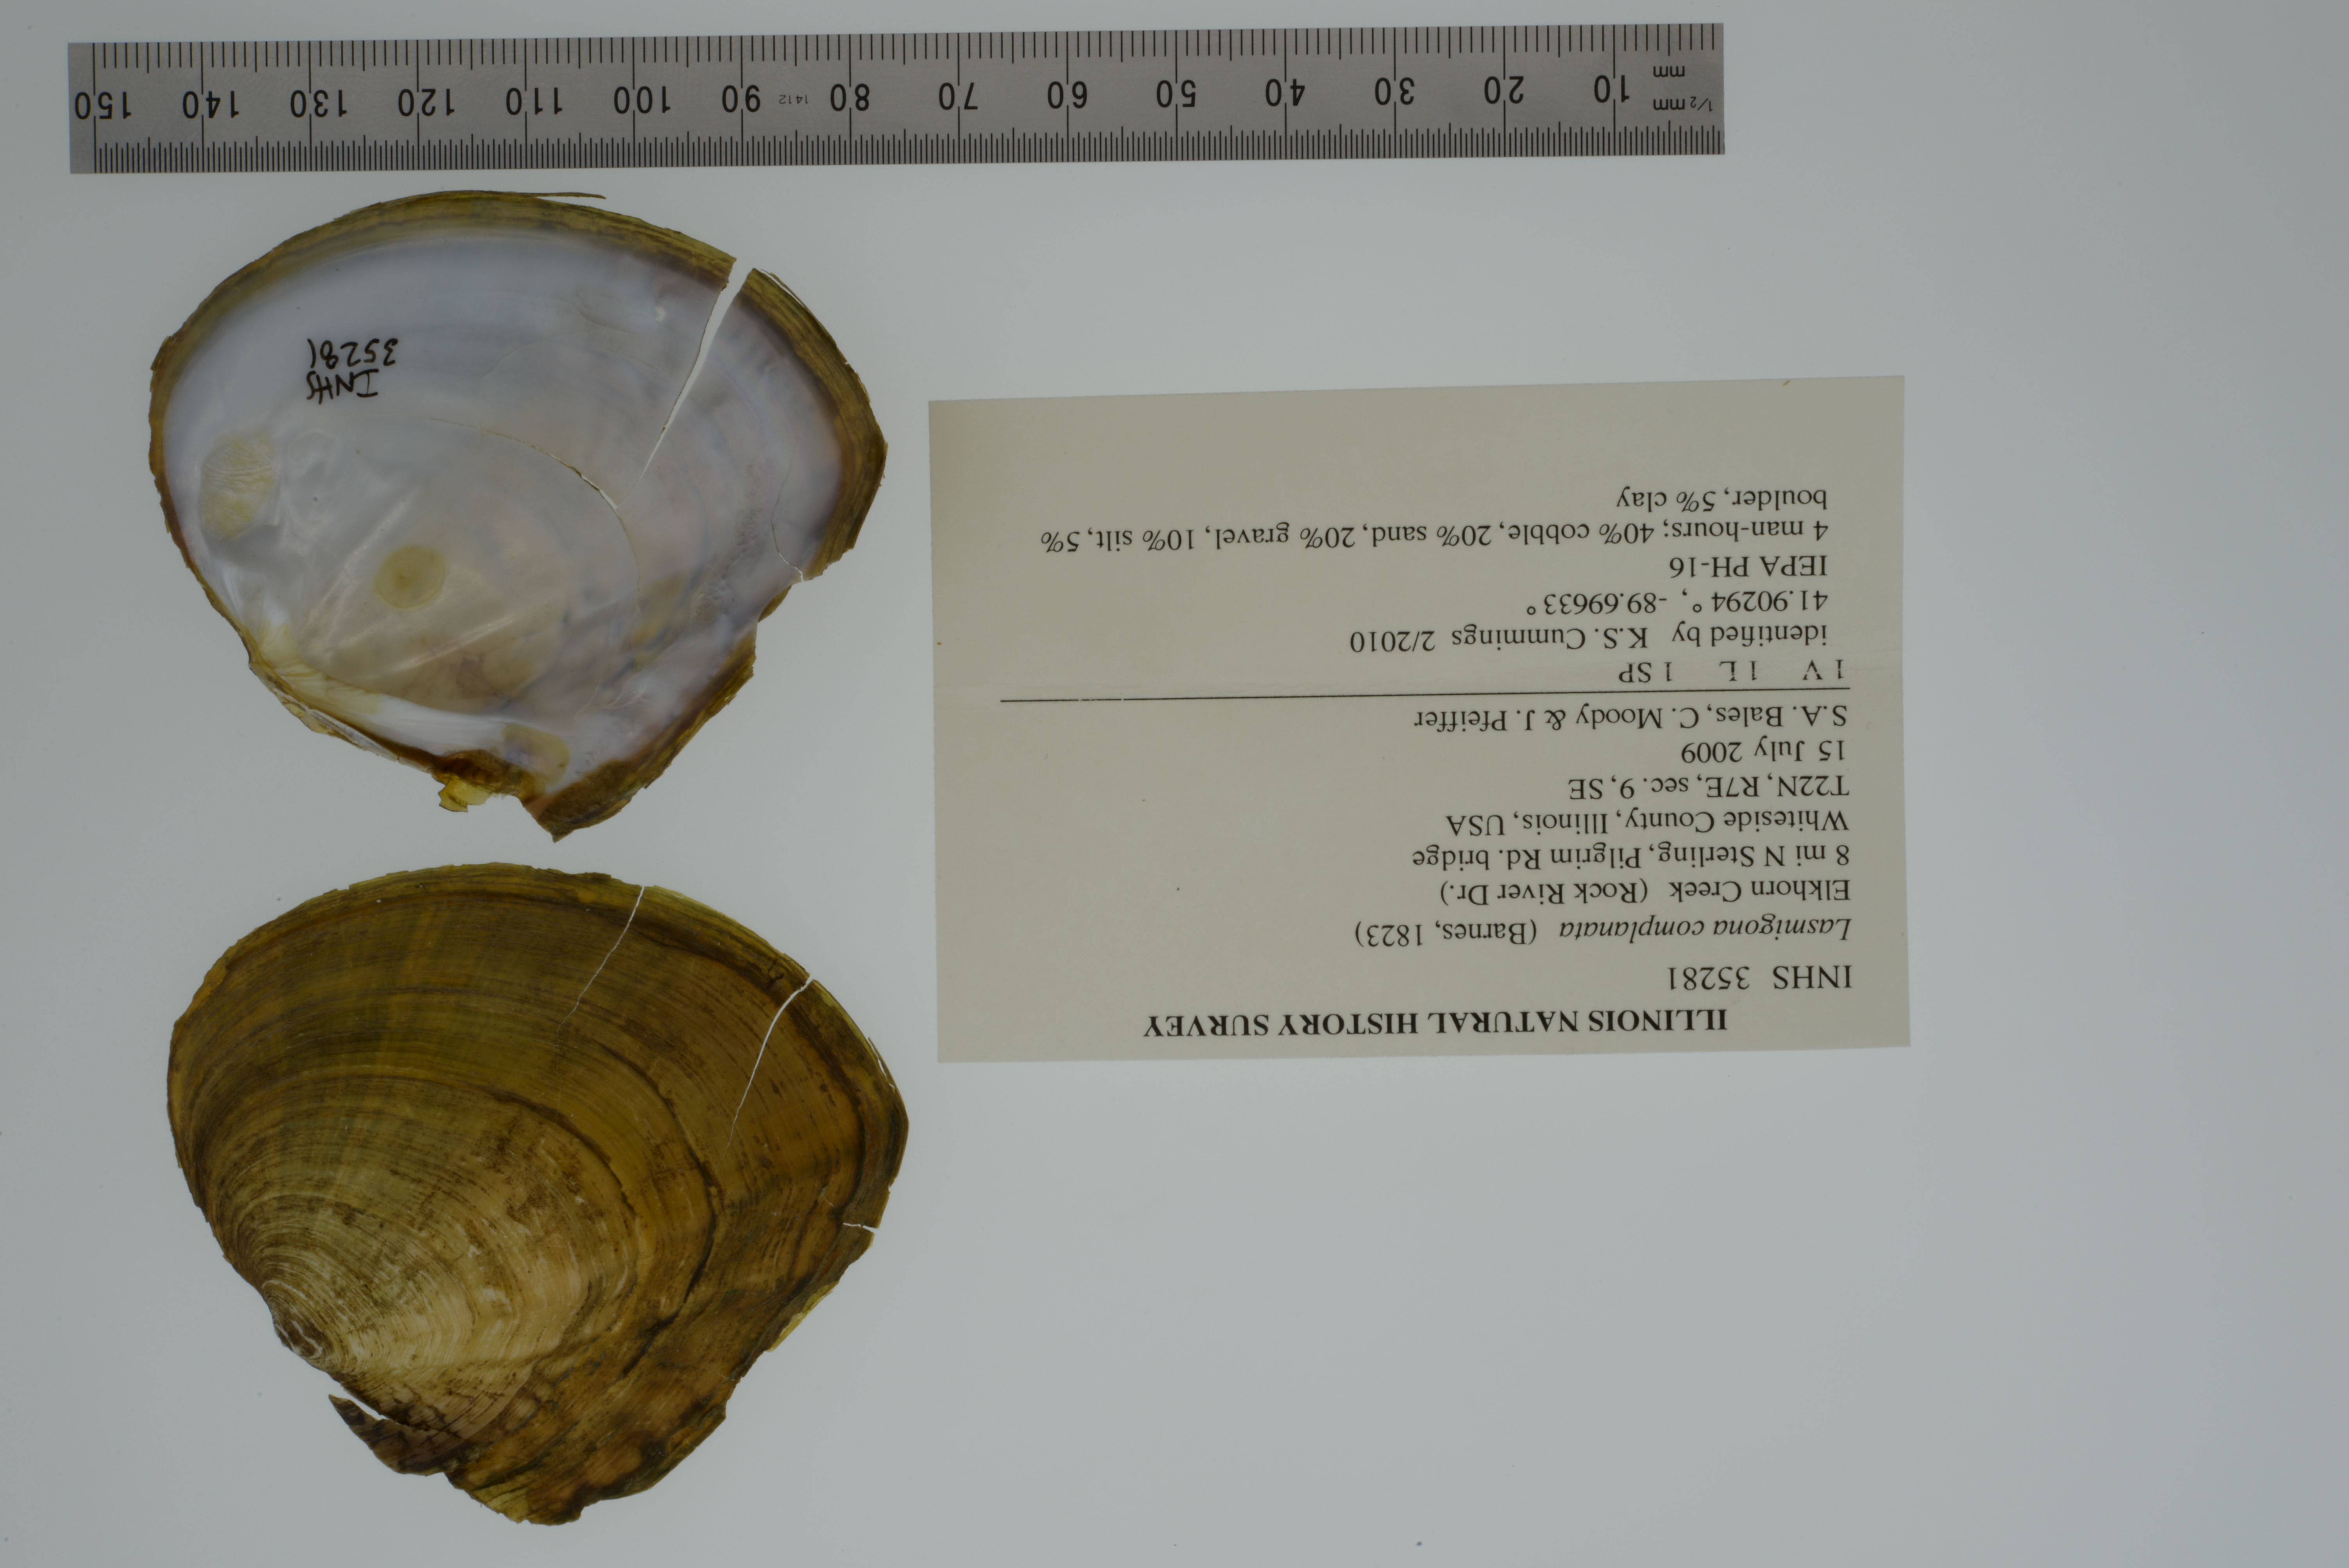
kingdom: Animalia
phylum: Mollusca
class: Bivalvia
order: Unionida
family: Unionidae
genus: Lasmigona
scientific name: Lasmigona complanata
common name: White heelsplitter
